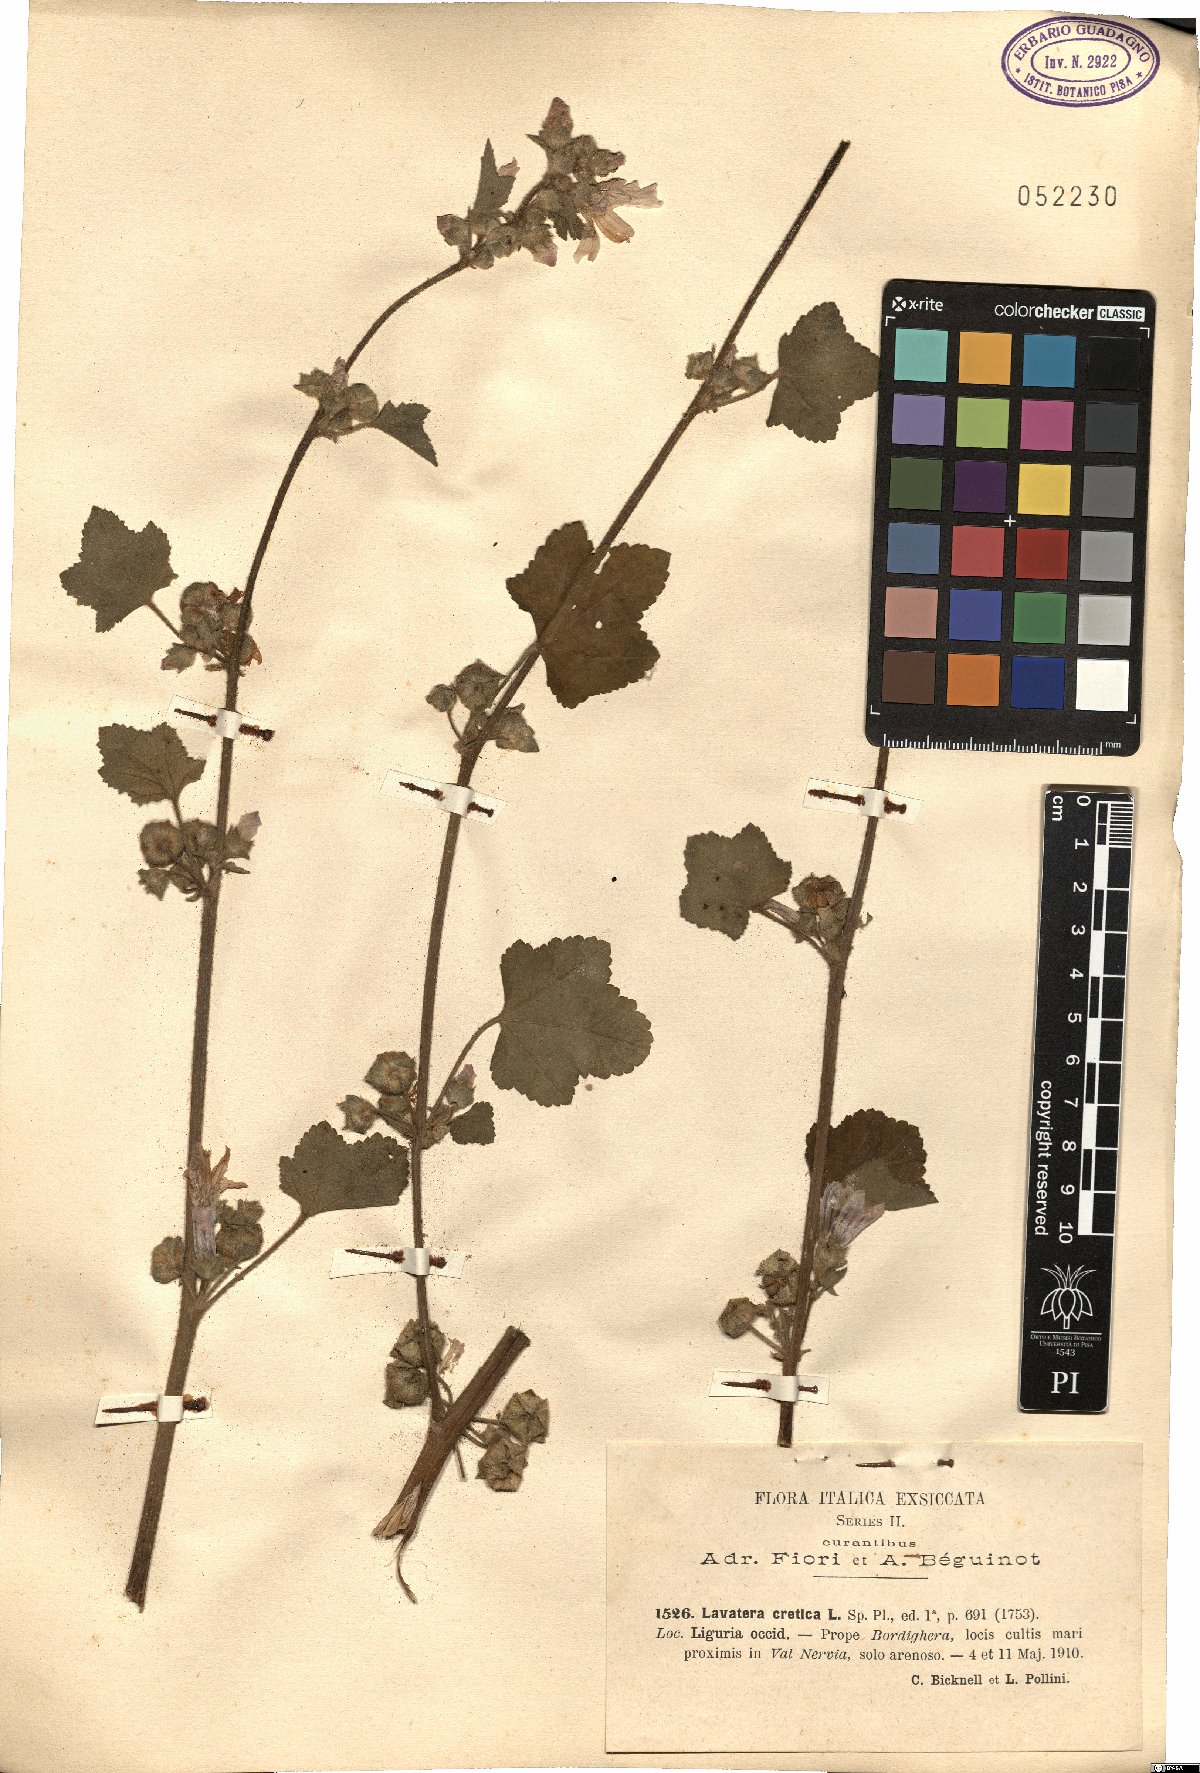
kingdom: Plantae
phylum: Tracheophyta
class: Magnoliopsida
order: Malvales
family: Malvaceae
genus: Malva
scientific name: Malva multiflora
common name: Cheeseweed
